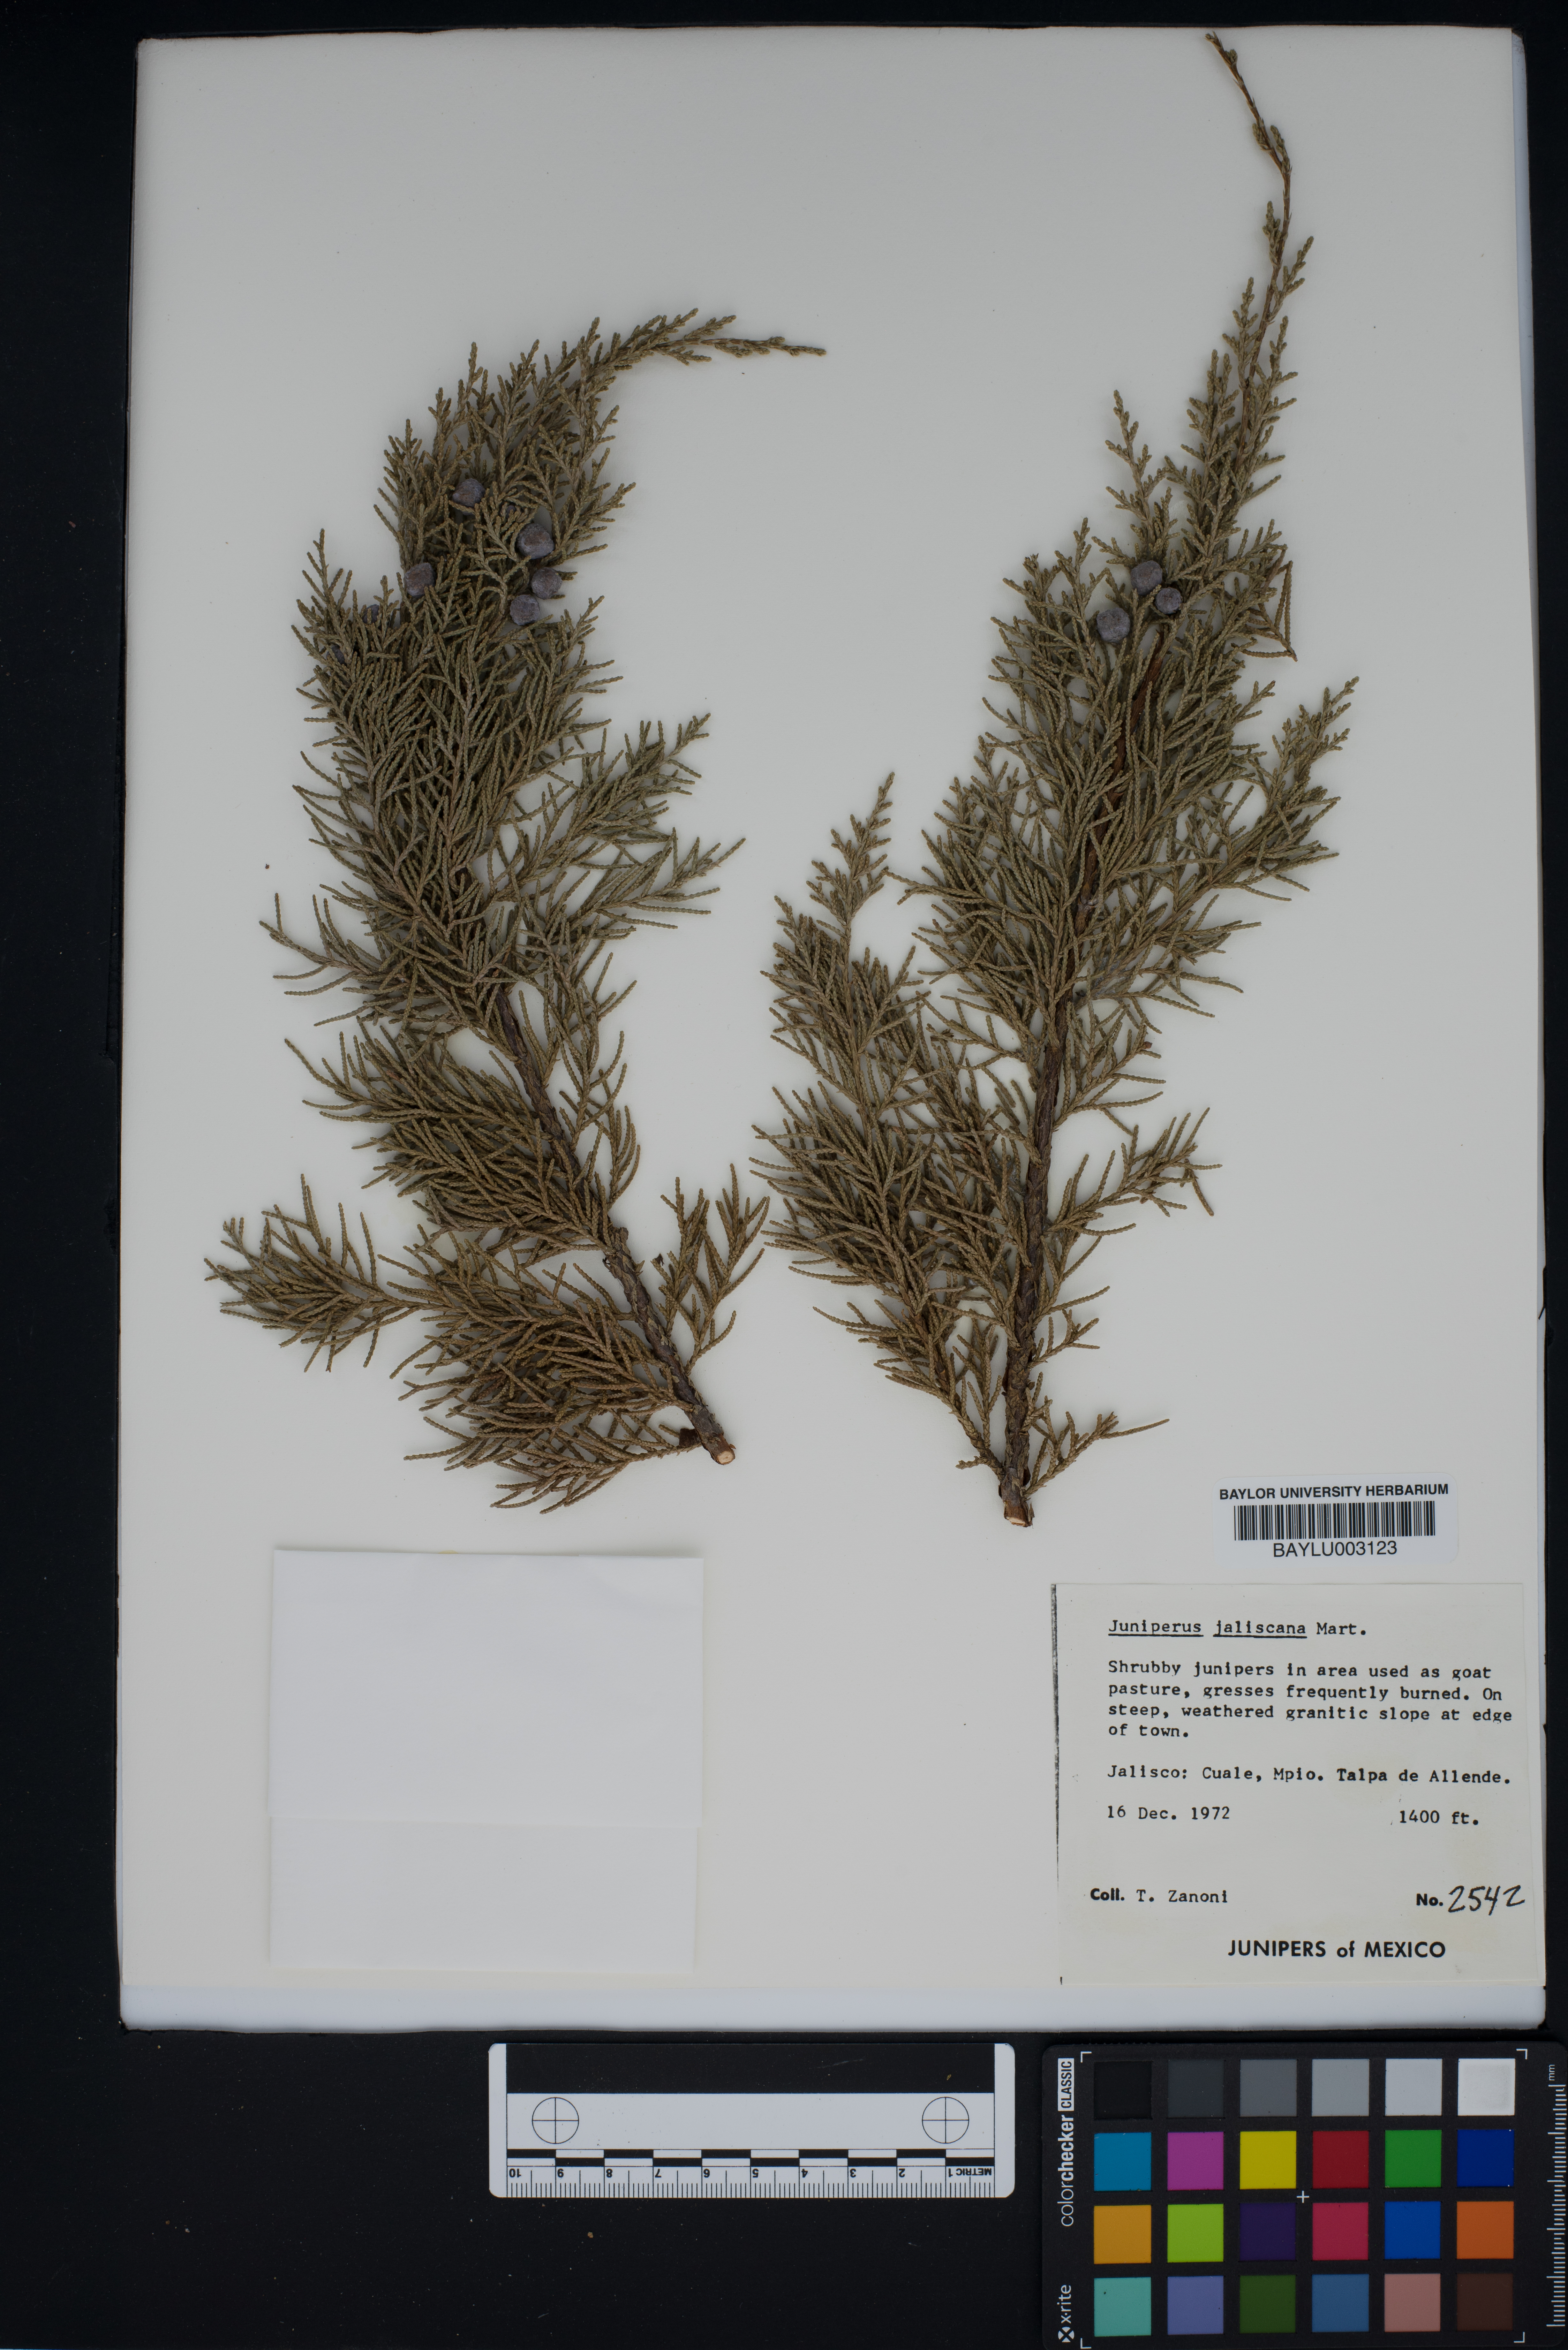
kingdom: Plantae
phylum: Tracheophyta
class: Pinopsida
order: Pinales
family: Cupressaceae
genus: Juniperus
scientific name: Juniperus jaliscana
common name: Jalisco juniper
